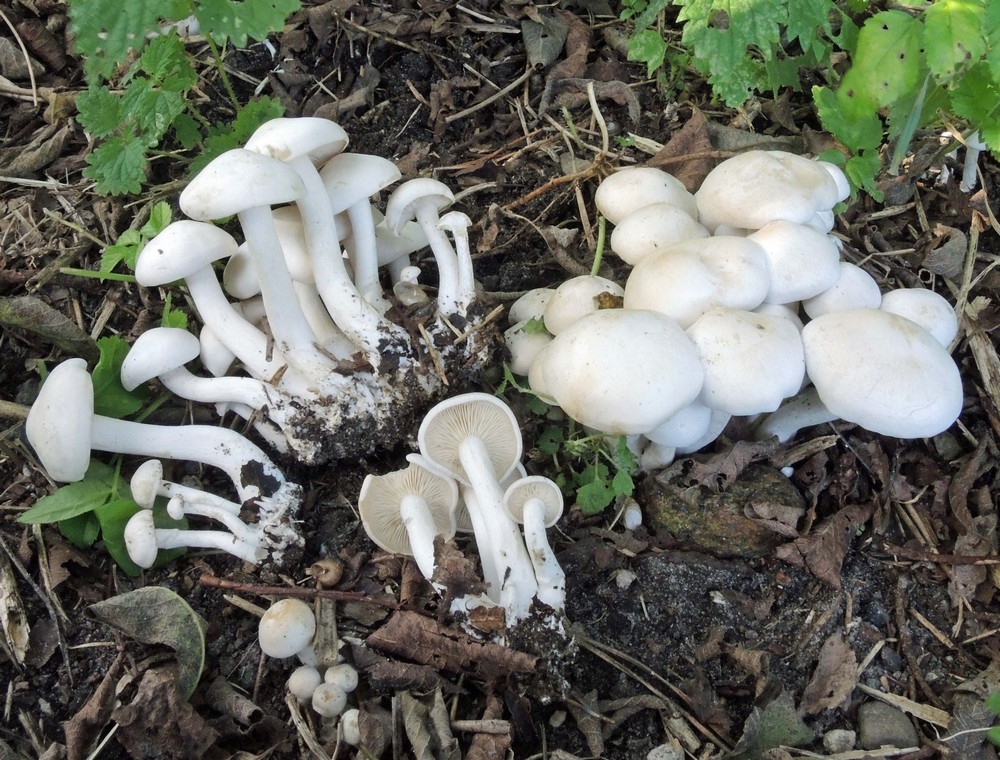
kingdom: Fungi
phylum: Basidiomycota
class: Agaricomycetes
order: Agaricales
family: Tricholomataceae
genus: Leucocybe
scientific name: Leucocybe connata
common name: knippe-tragthat
